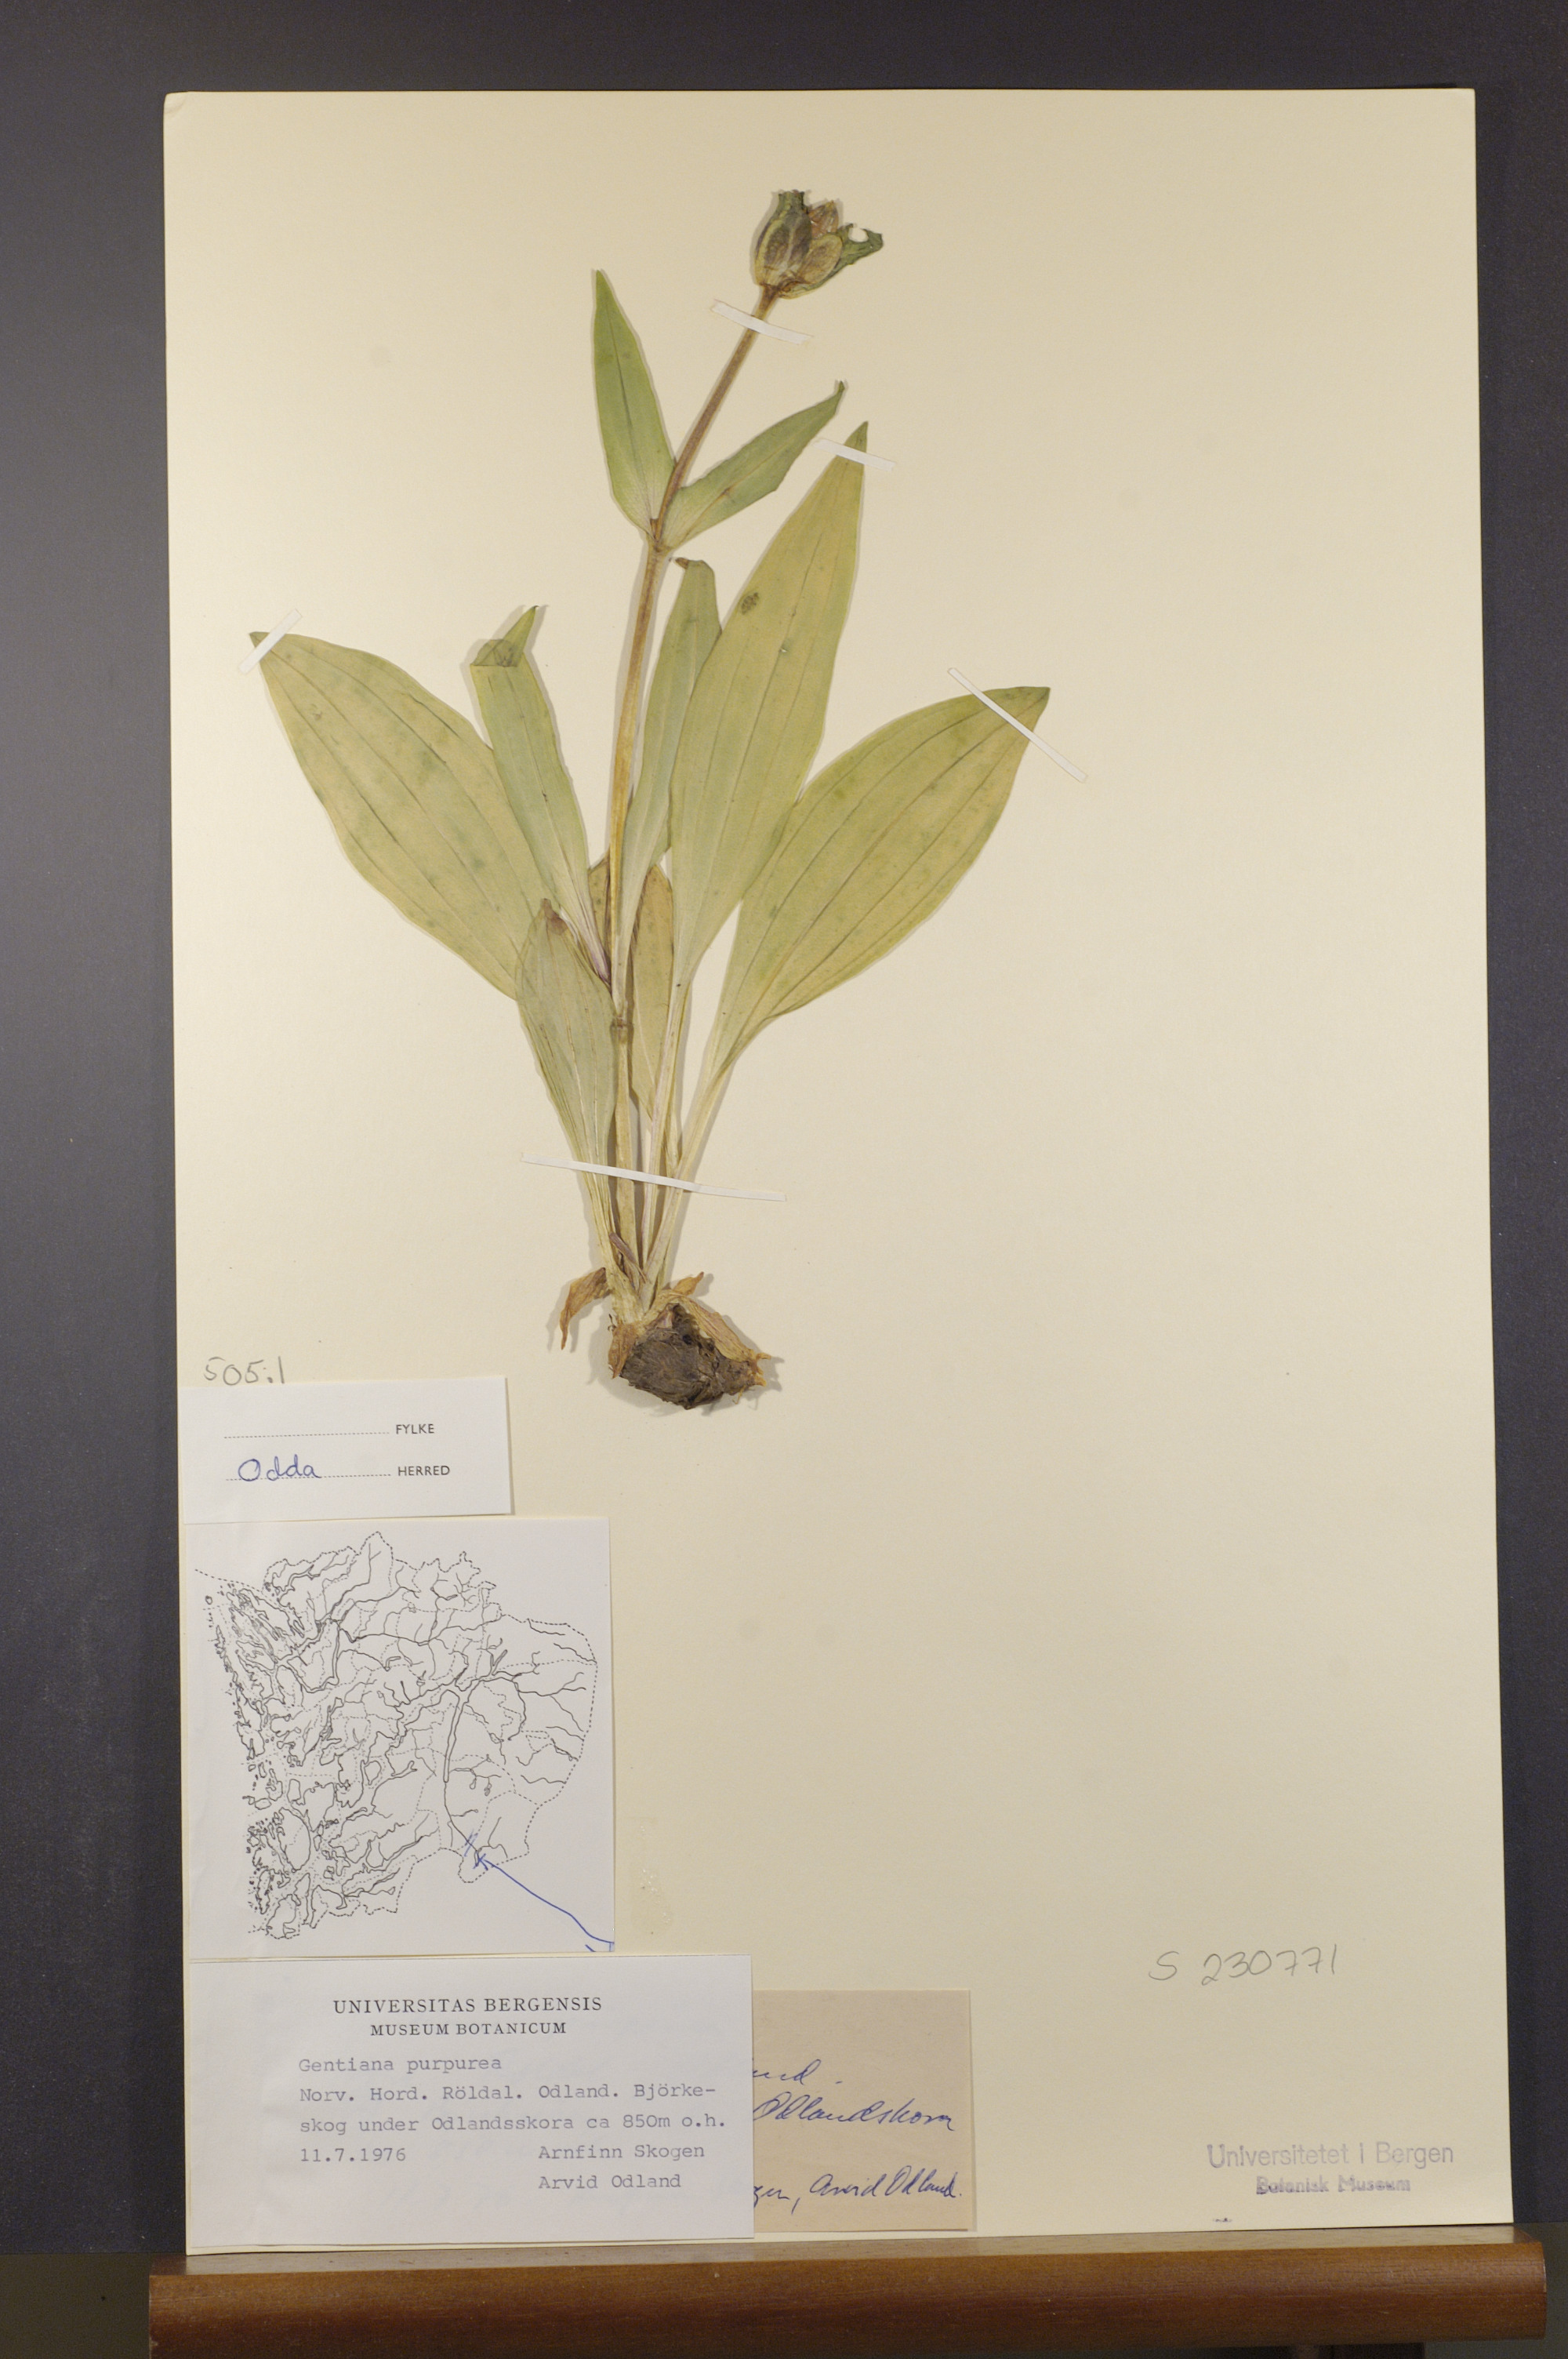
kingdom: Plantae
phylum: Tracheophyta
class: Magnoliopsida
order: Gentianales
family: Gentianaceae
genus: Gentiana
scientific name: Gentiana purpurea
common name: Purple gentian
